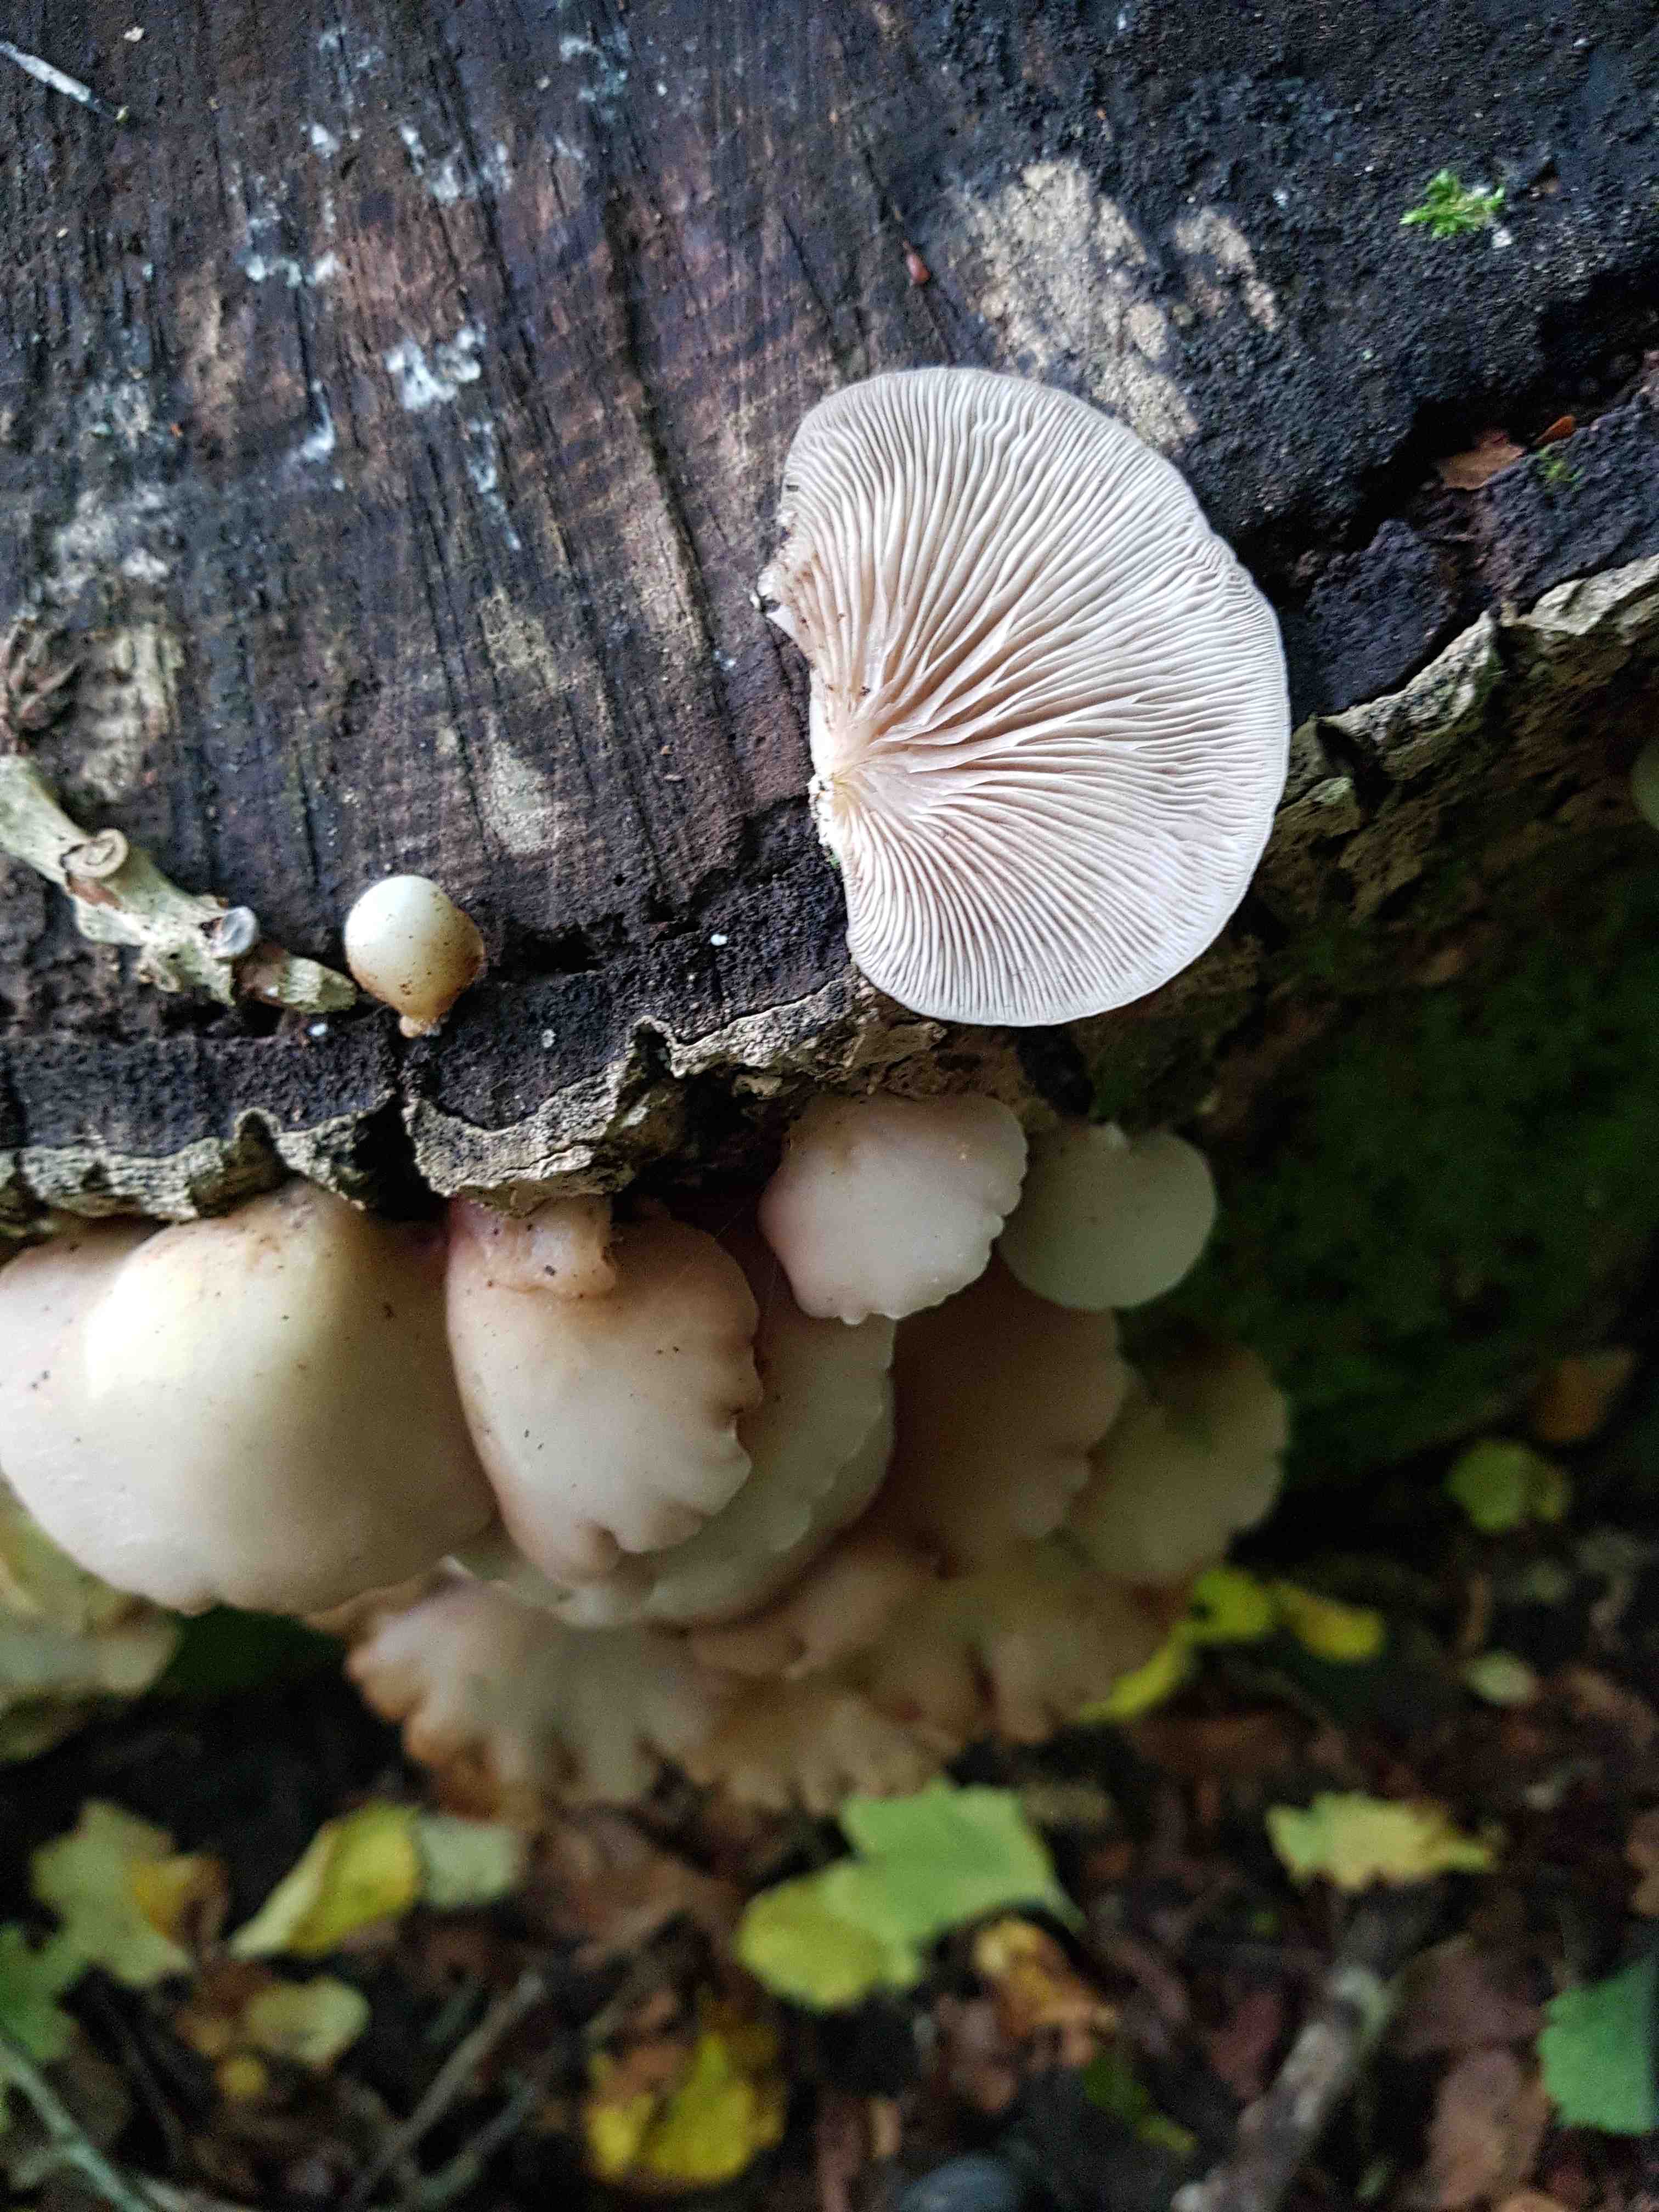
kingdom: Fungi
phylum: Basidiomycota
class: Agaricomycetes
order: Agaricales
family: Crepidotaceae
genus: Crepidotus
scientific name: Crepidotus
